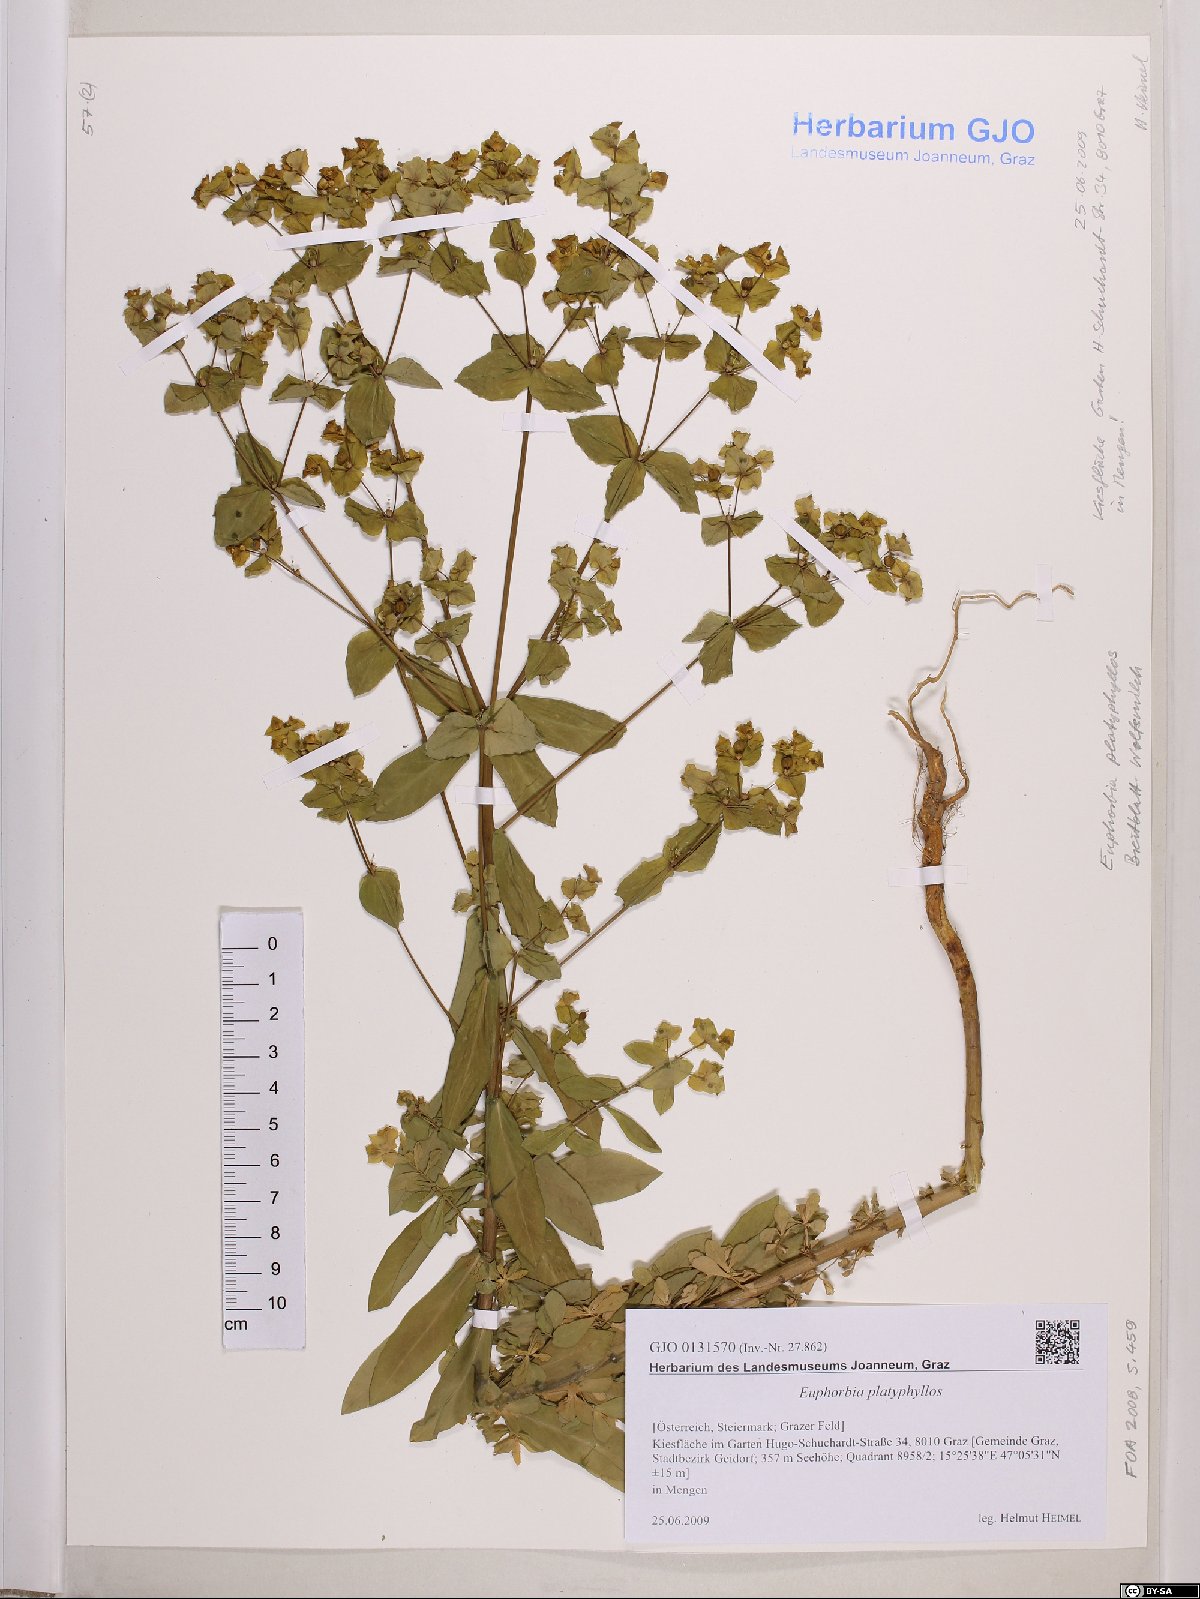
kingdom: Plantae
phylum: Tracheophyta
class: Magnoliopsida
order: Malpighiales
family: Euphorbiaceae
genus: Euphorbia
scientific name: Euphorbia platyphyllos
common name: Broad-leaved spurge
